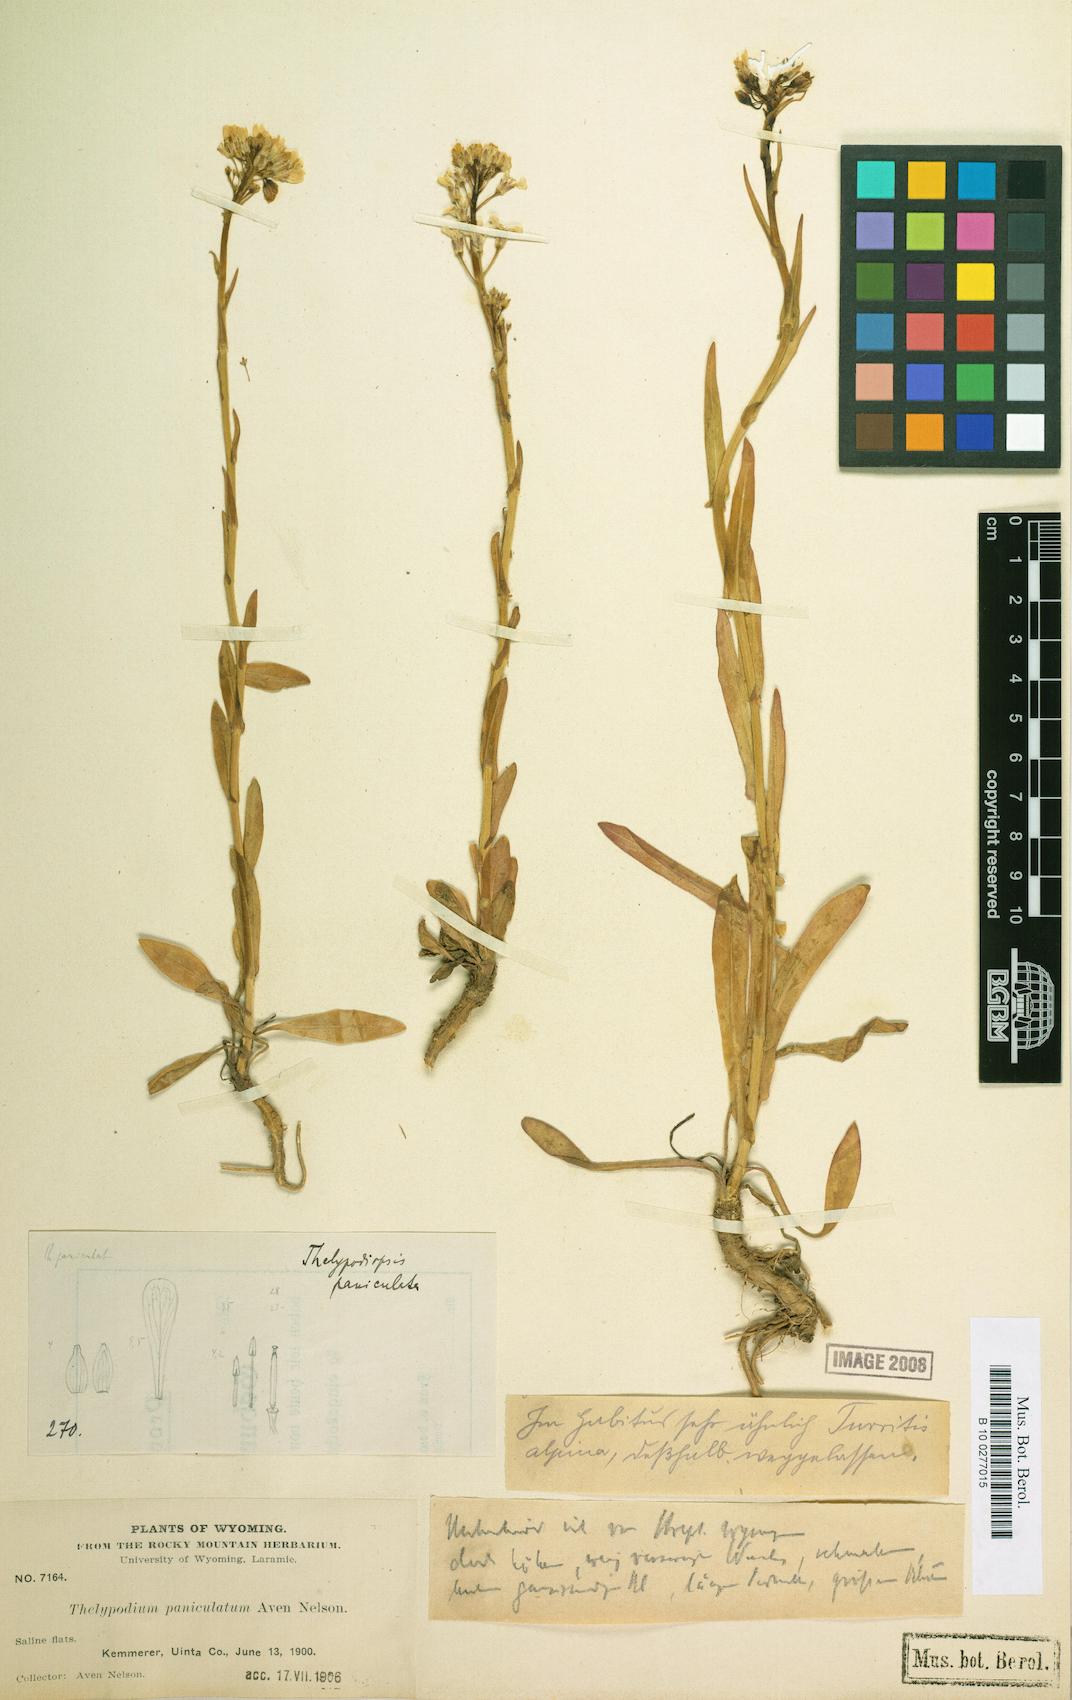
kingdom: Plantae
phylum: Tracheophyta
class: Magnoliopsida
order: Brassicales
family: Brassicaceae
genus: Thelypodium
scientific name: Thelypodium paniculatum
